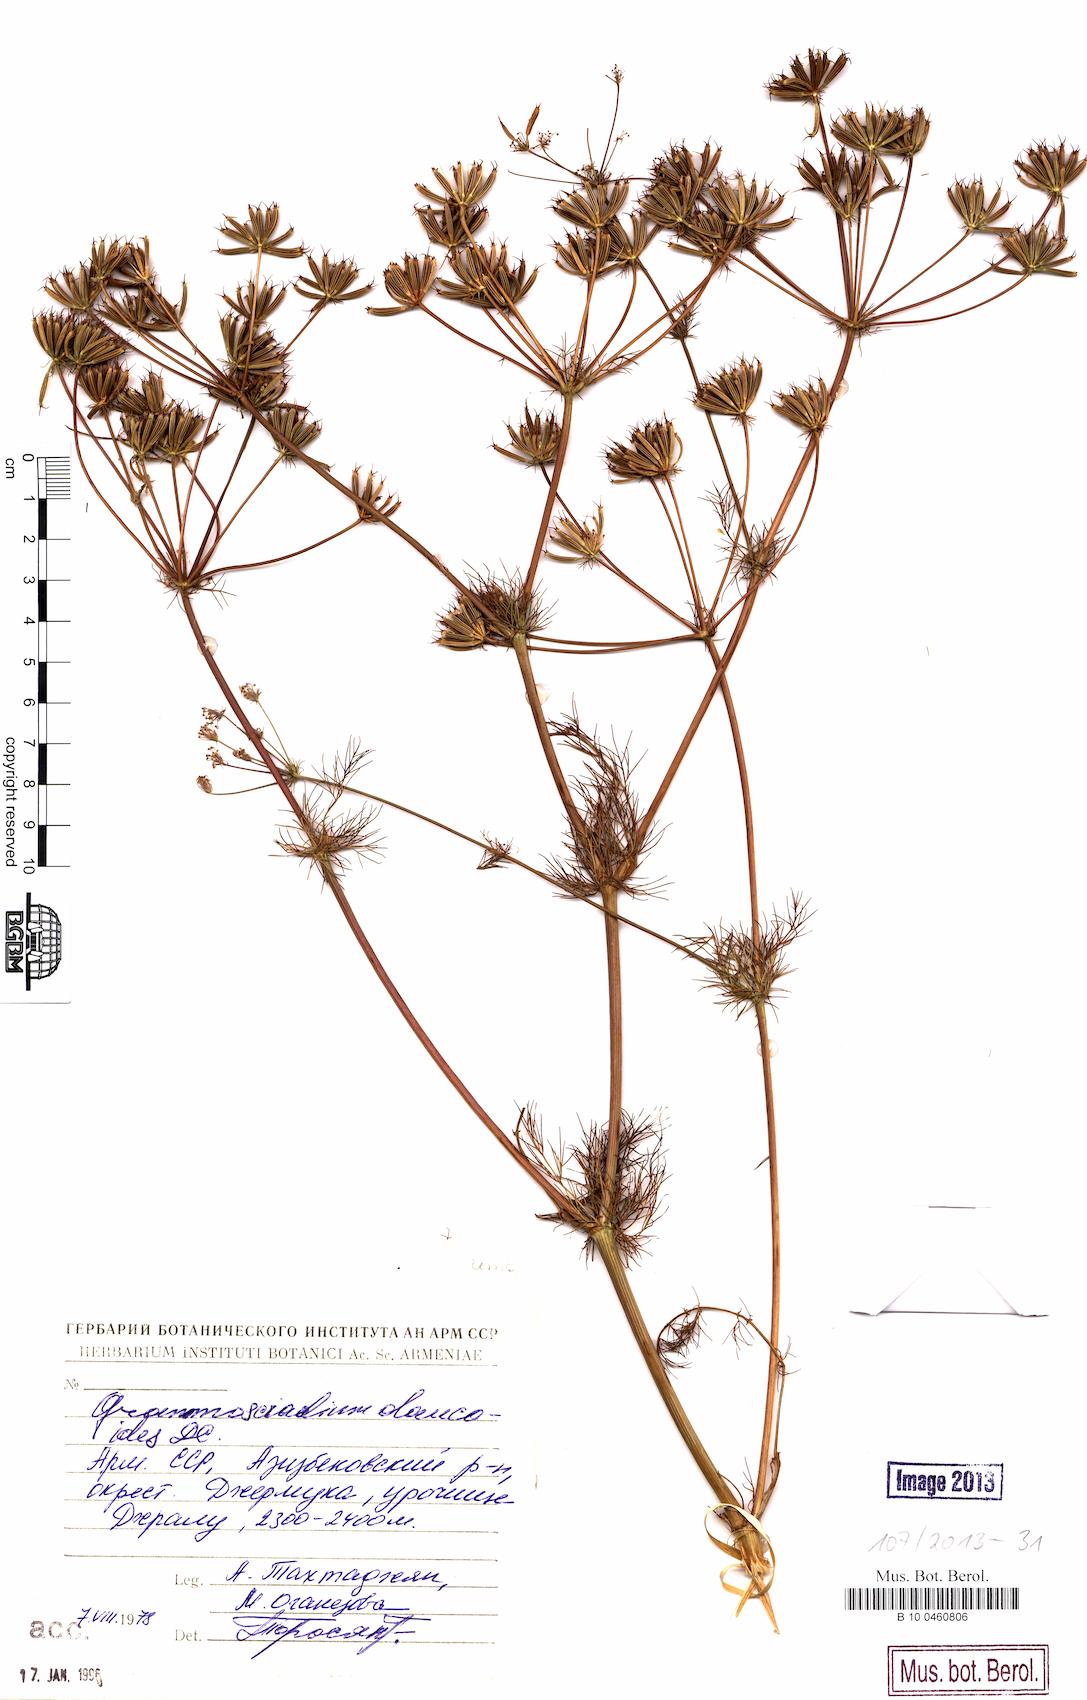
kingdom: Plantae
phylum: Tracheophyta
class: Magnoliopsida
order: Apiales
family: Apiaceae
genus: Grammosciadium
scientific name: Grammosciadium daucoides
